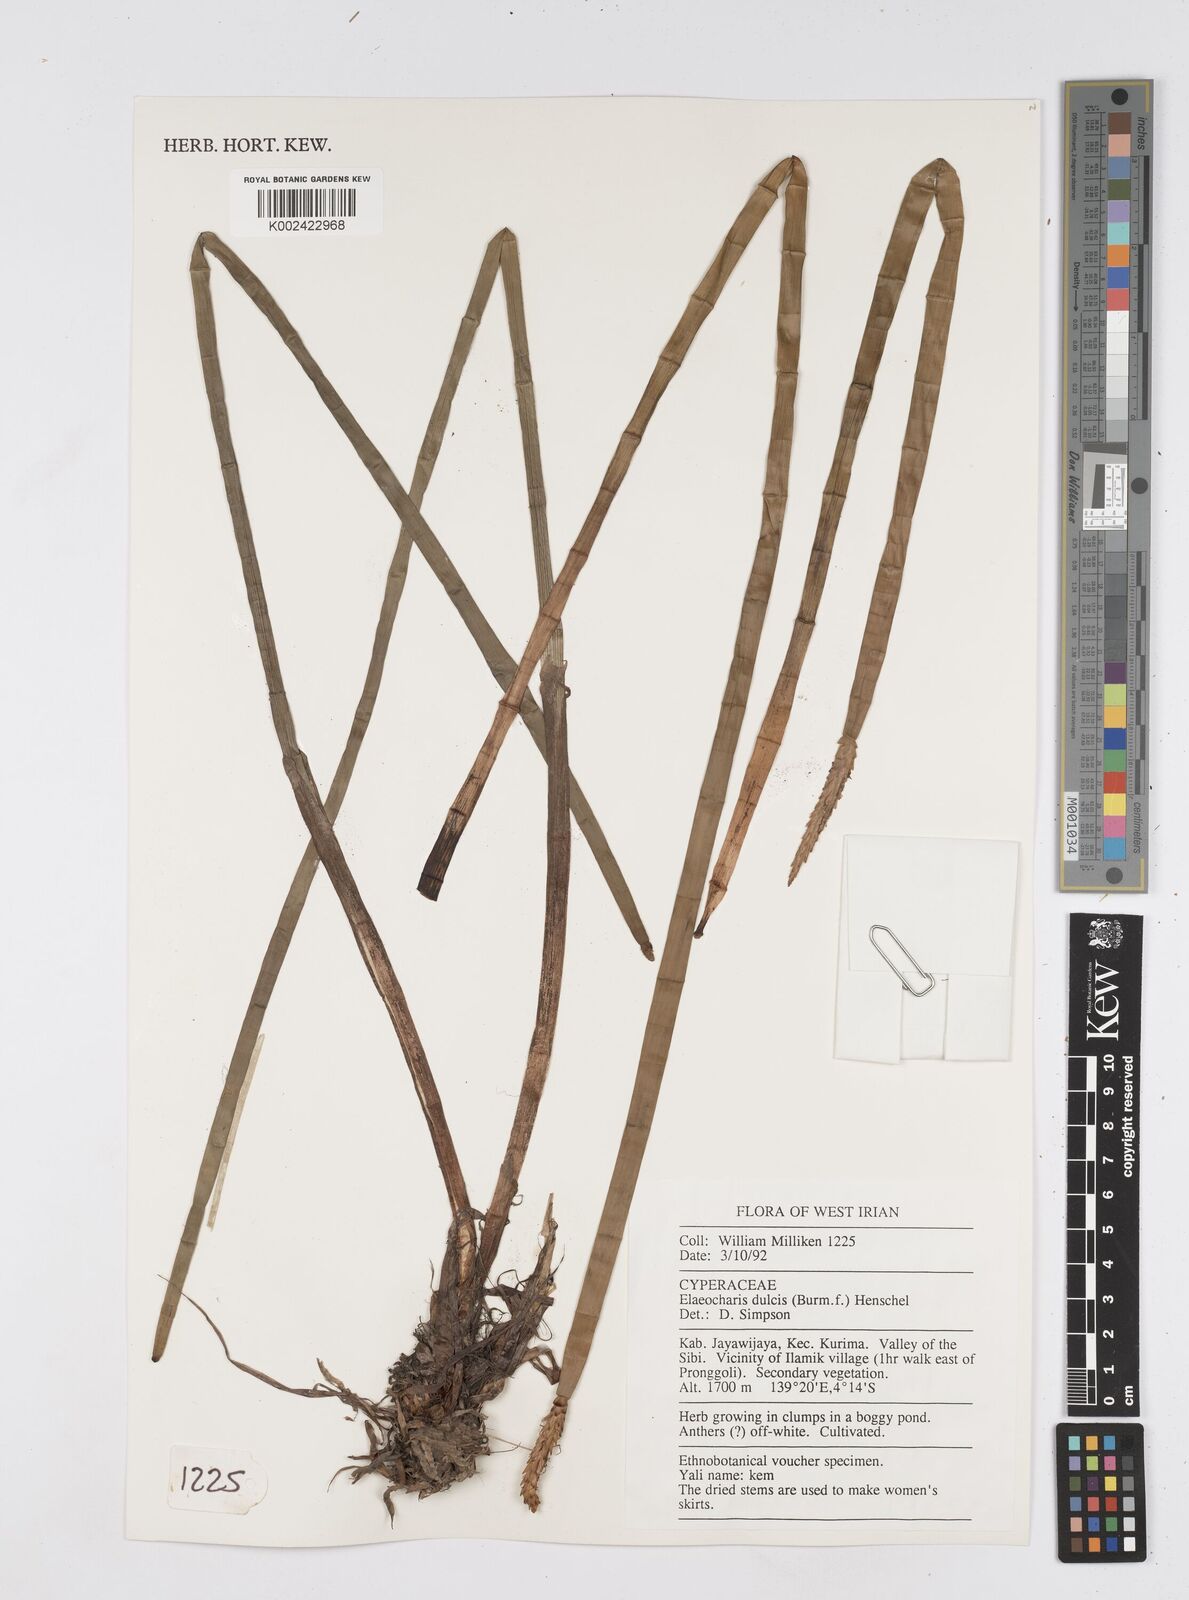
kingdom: Plantae
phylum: Tracheophyta
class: Liliopsida
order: Poales
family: Cyperaceae
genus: Eleocharis
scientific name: Eleocharis dulcis
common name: Chinese water chestnut
